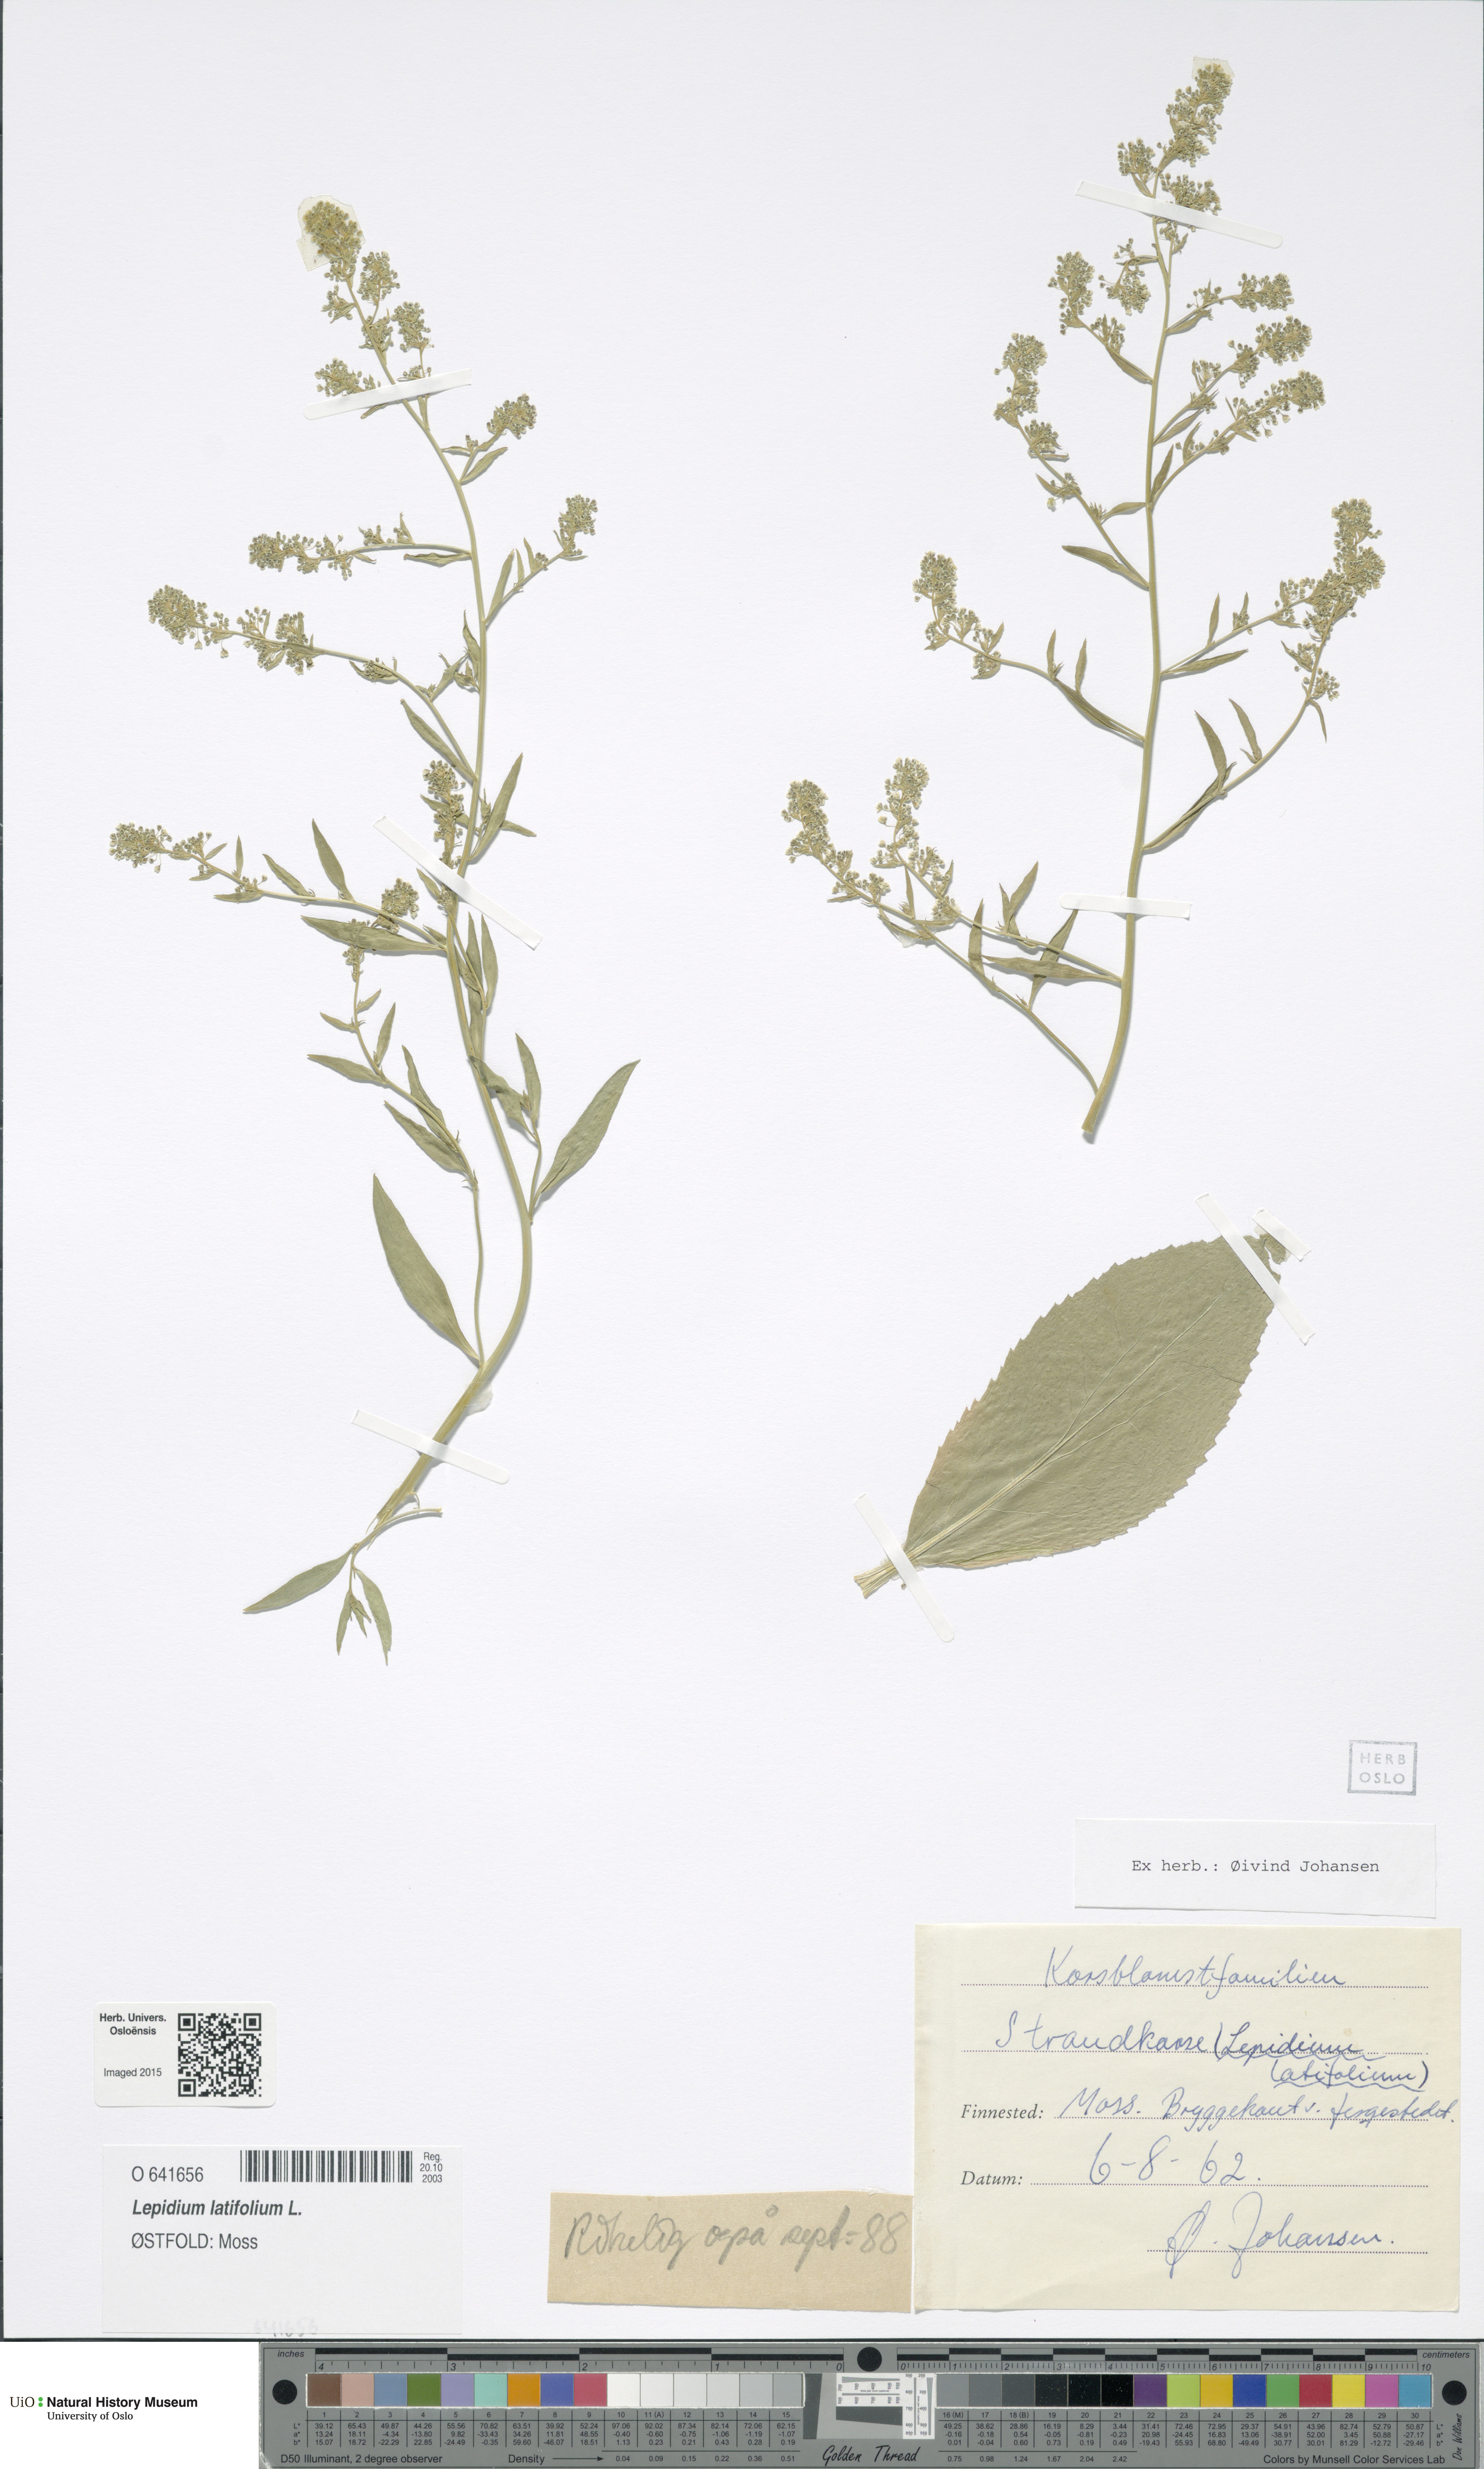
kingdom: Plantae
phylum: Tracheophyta
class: Magnoliopsida
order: Brassicales
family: Brassicaceae
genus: Lepidium
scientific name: Lepidium latifolium
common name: Dittander
